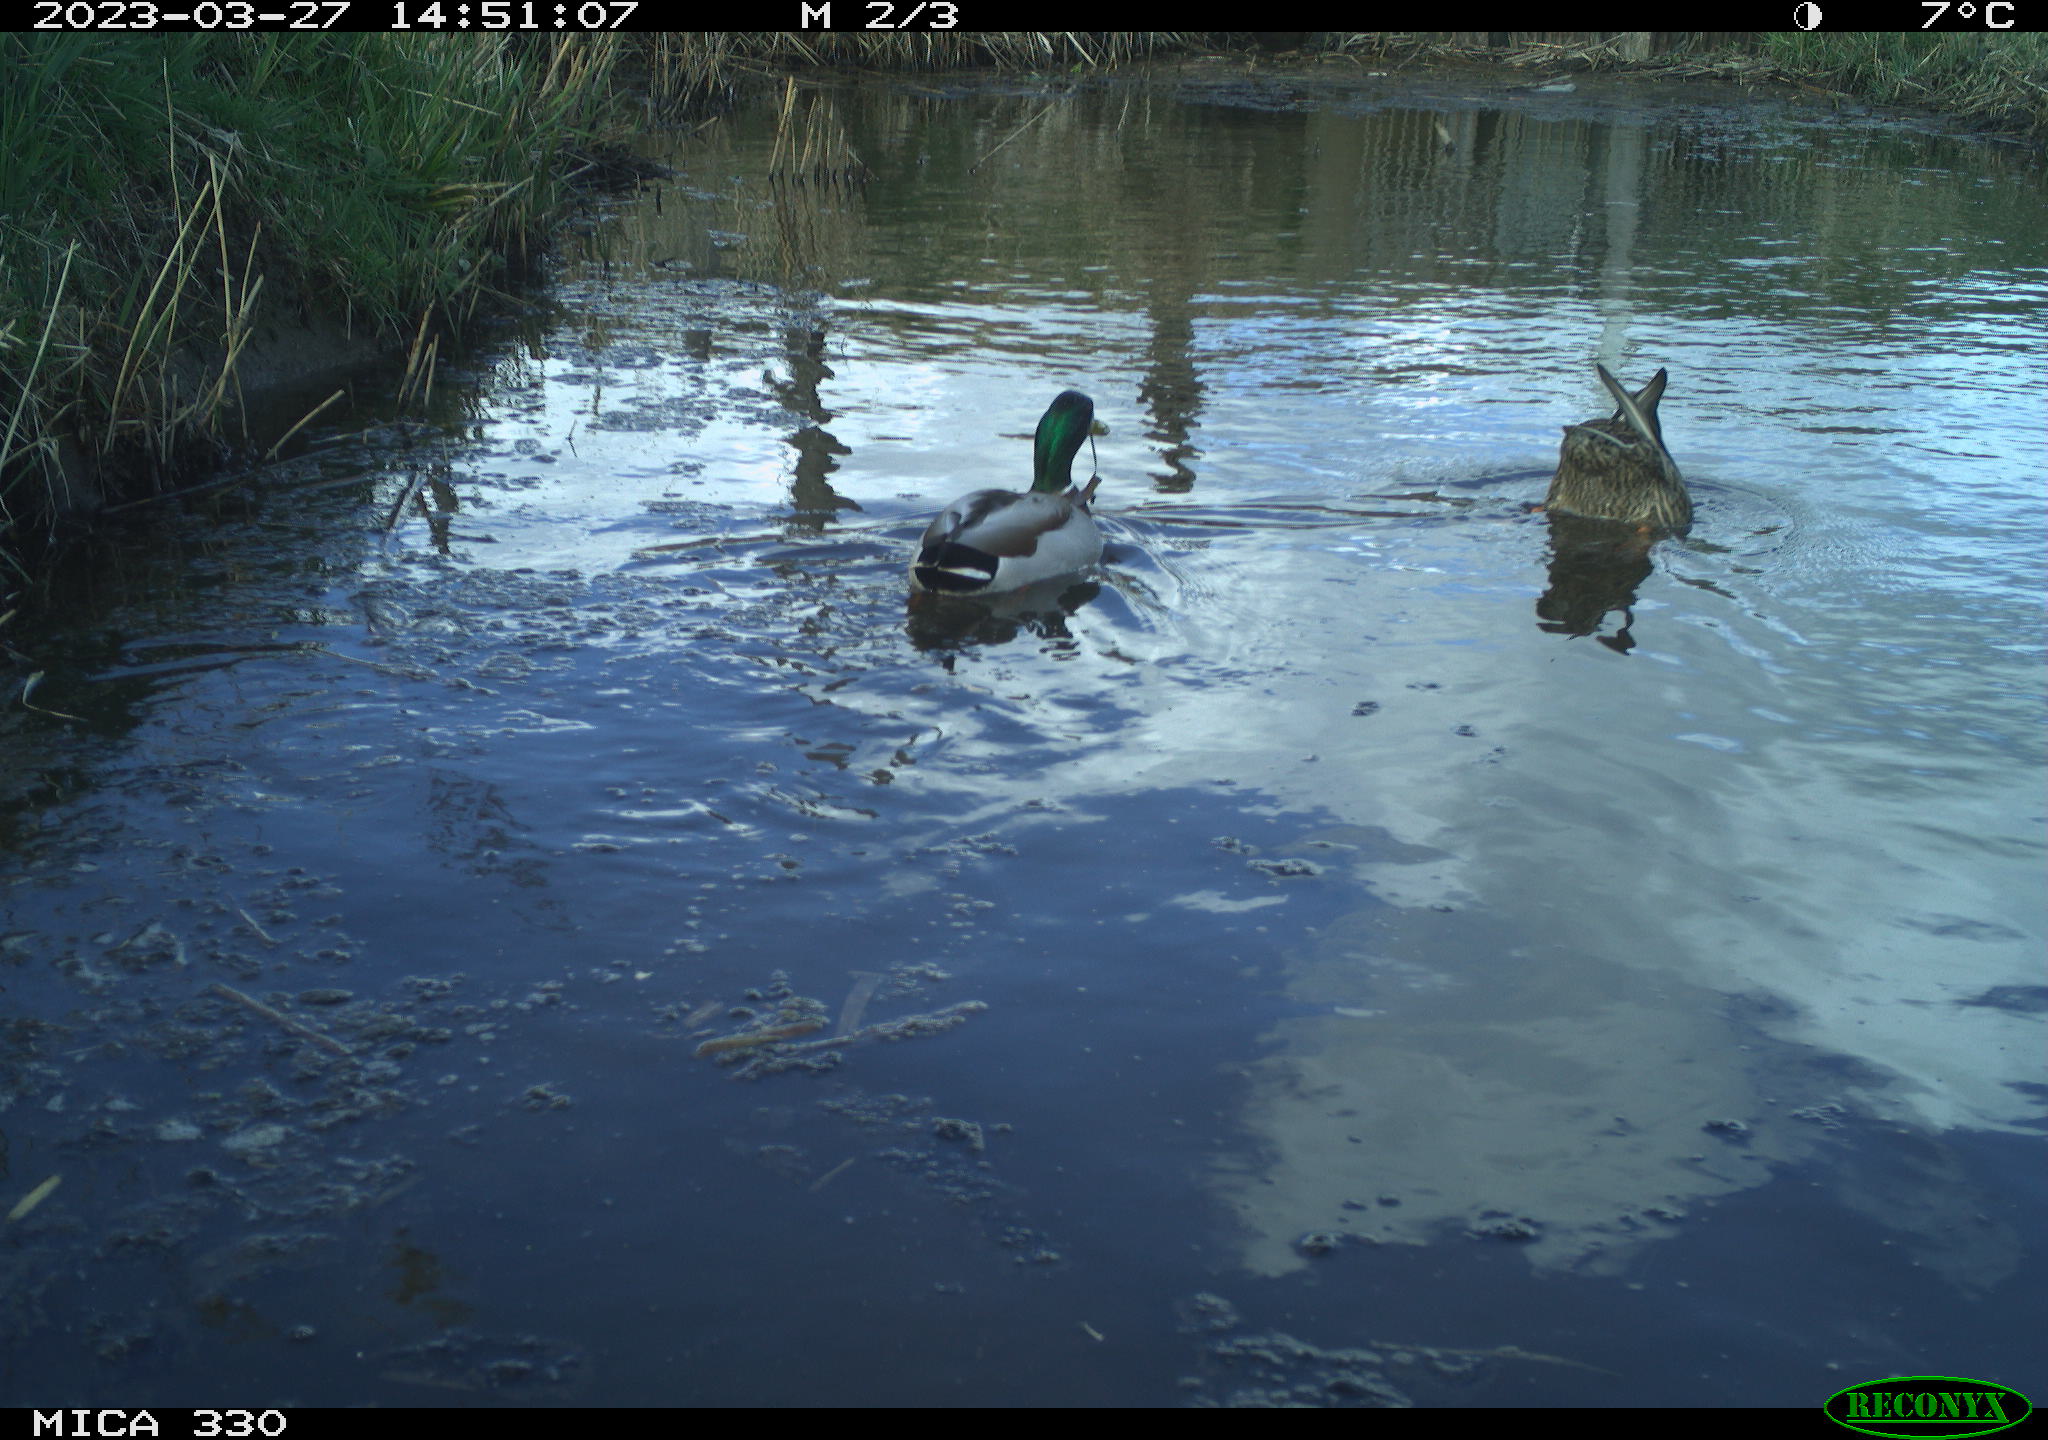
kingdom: Animalia
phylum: Chordata
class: Aves
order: Anseriformes
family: Anatidae
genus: Anas
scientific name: Anas
